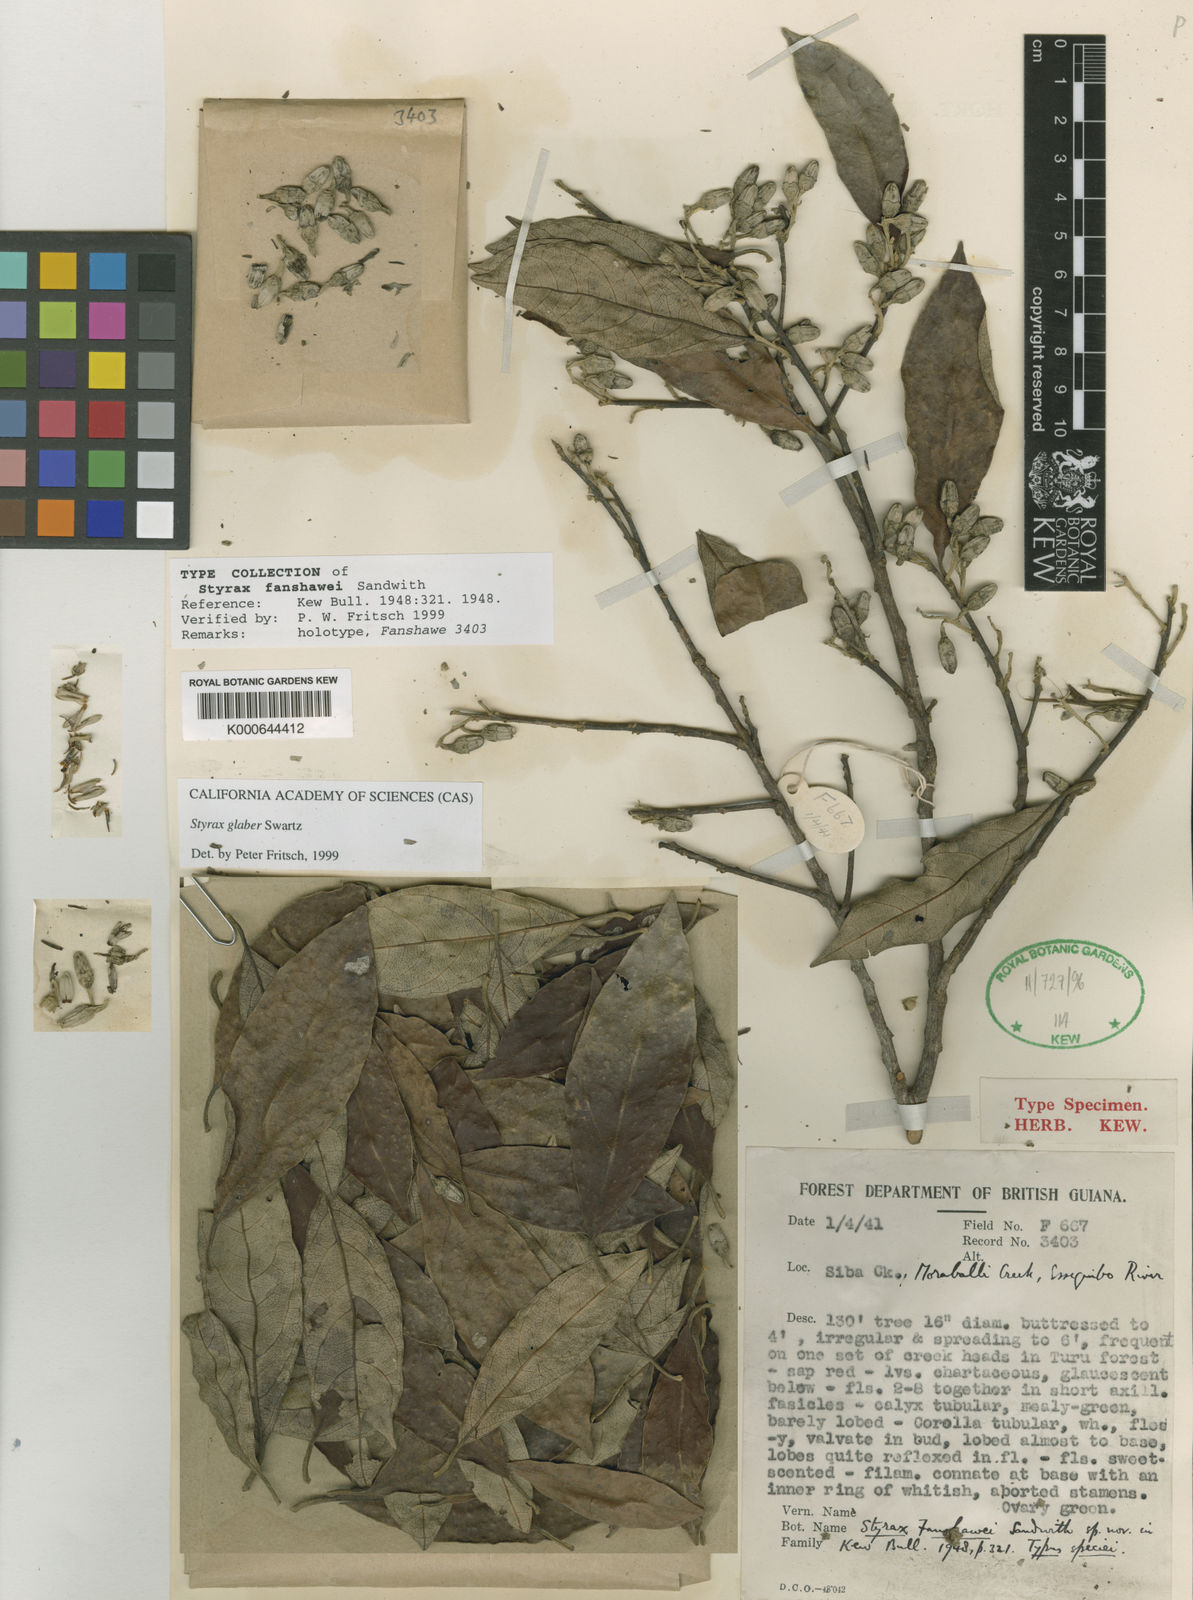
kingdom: Plantae
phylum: Tracheophyta
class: Magnoliopsida
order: Ericales
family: Styracaceae
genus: Styrax
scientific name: Styrax glaber
